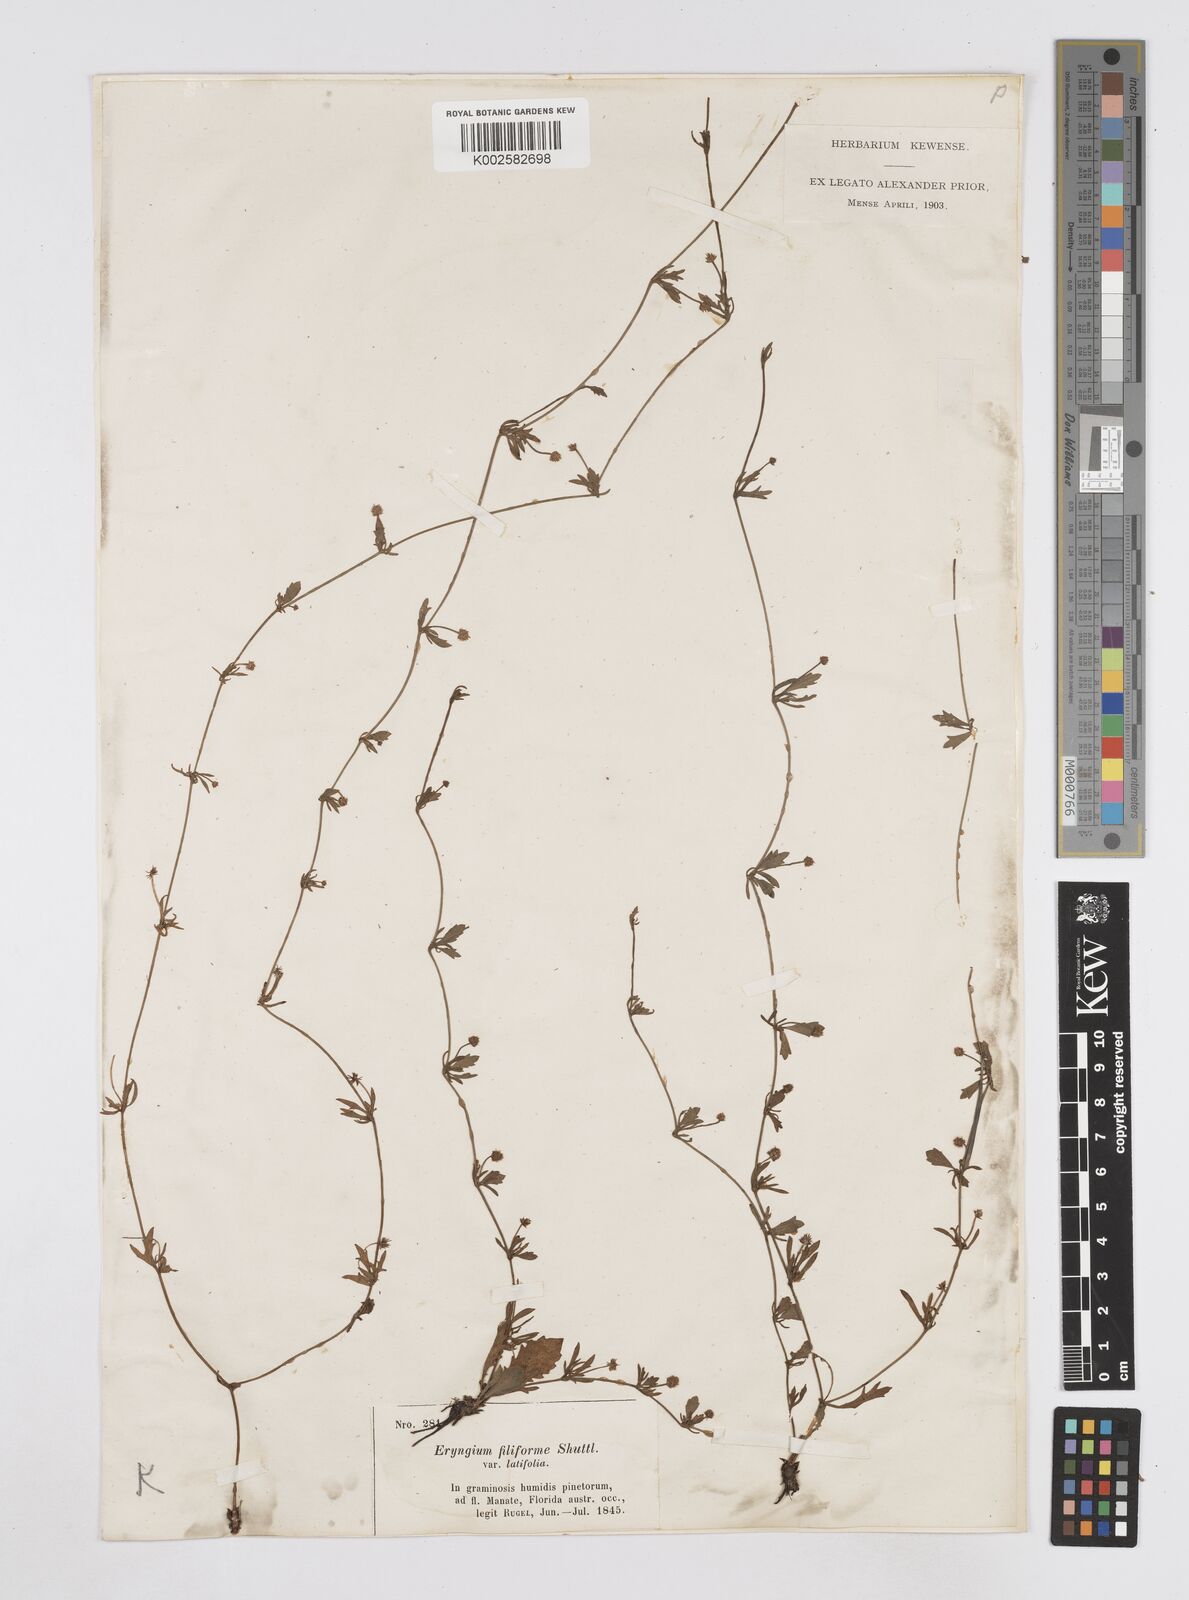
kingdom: Plantae
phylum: Tracheophyta
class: Magnoliopsida
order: Apiales
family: Apiaceae
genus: Eryngium
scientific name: Eryngium baldwinii
